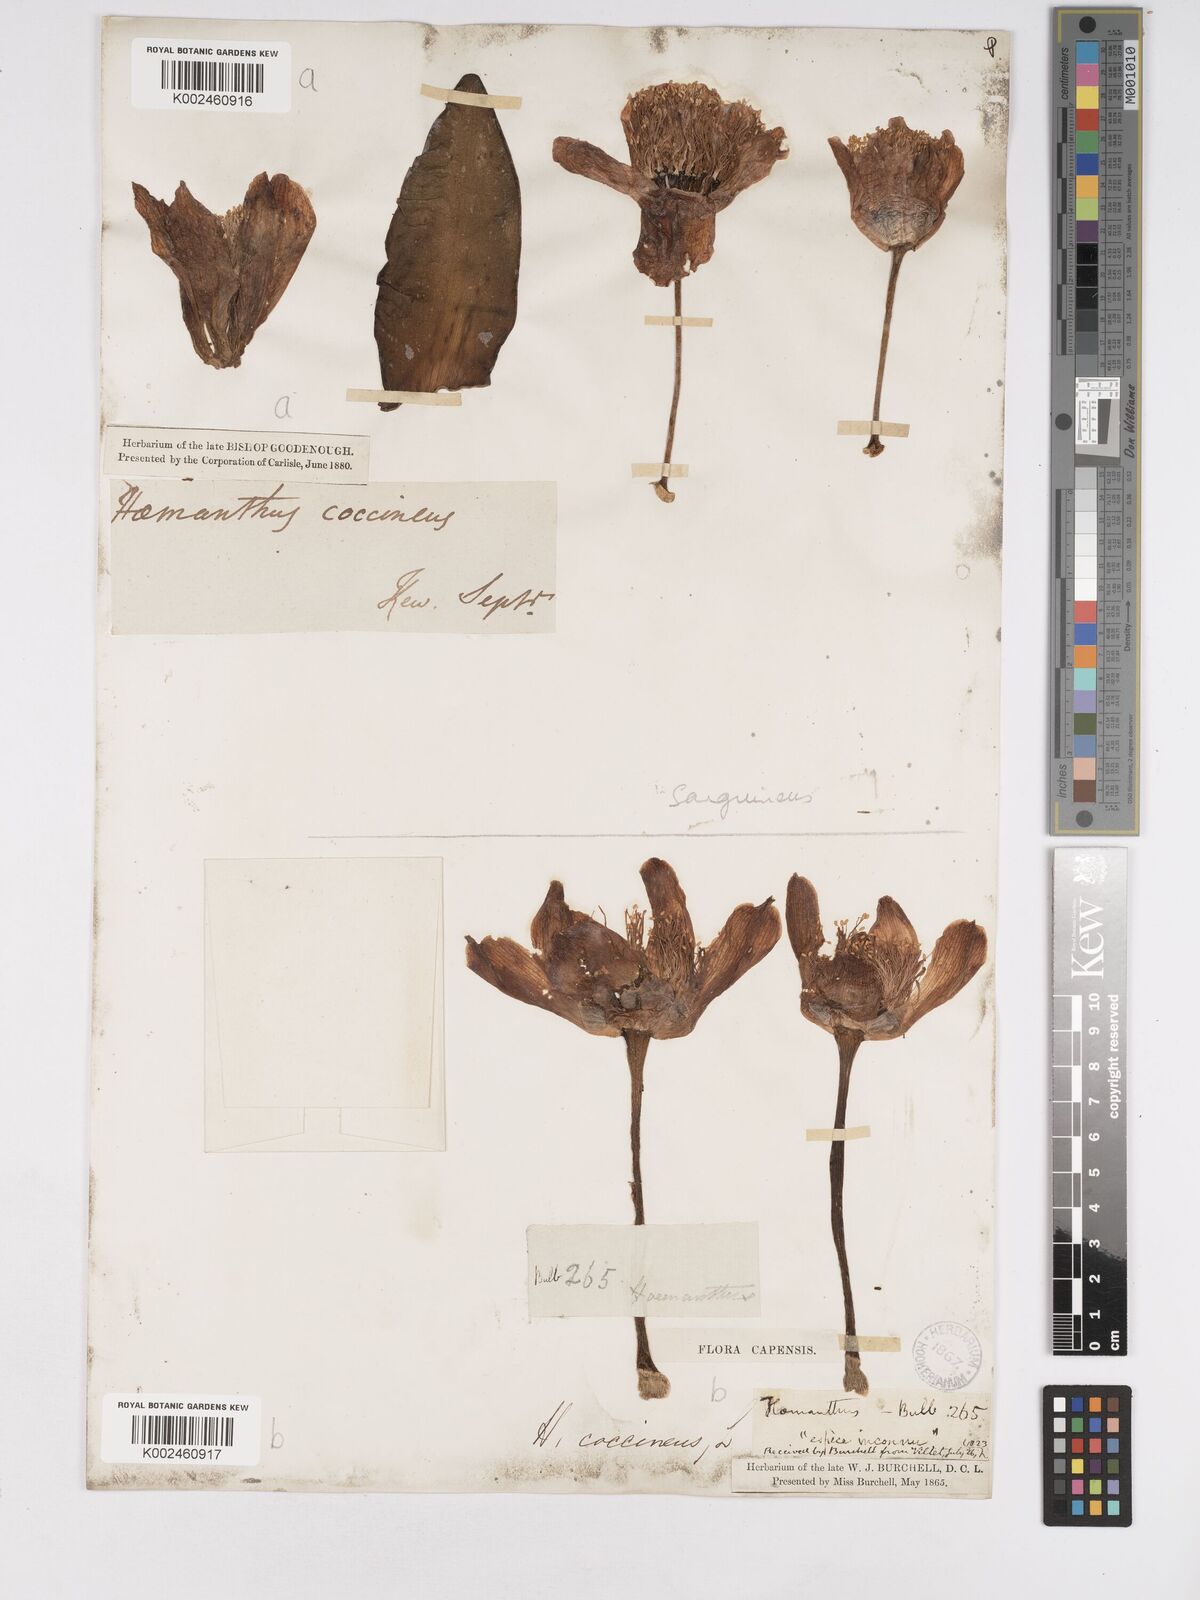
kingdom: Plantae
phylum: Tracheophyta
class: Liliopsida
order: Asparagales
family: Amaryllidaceae
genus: Haemanthus
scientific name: Haemanthus sanguineus
